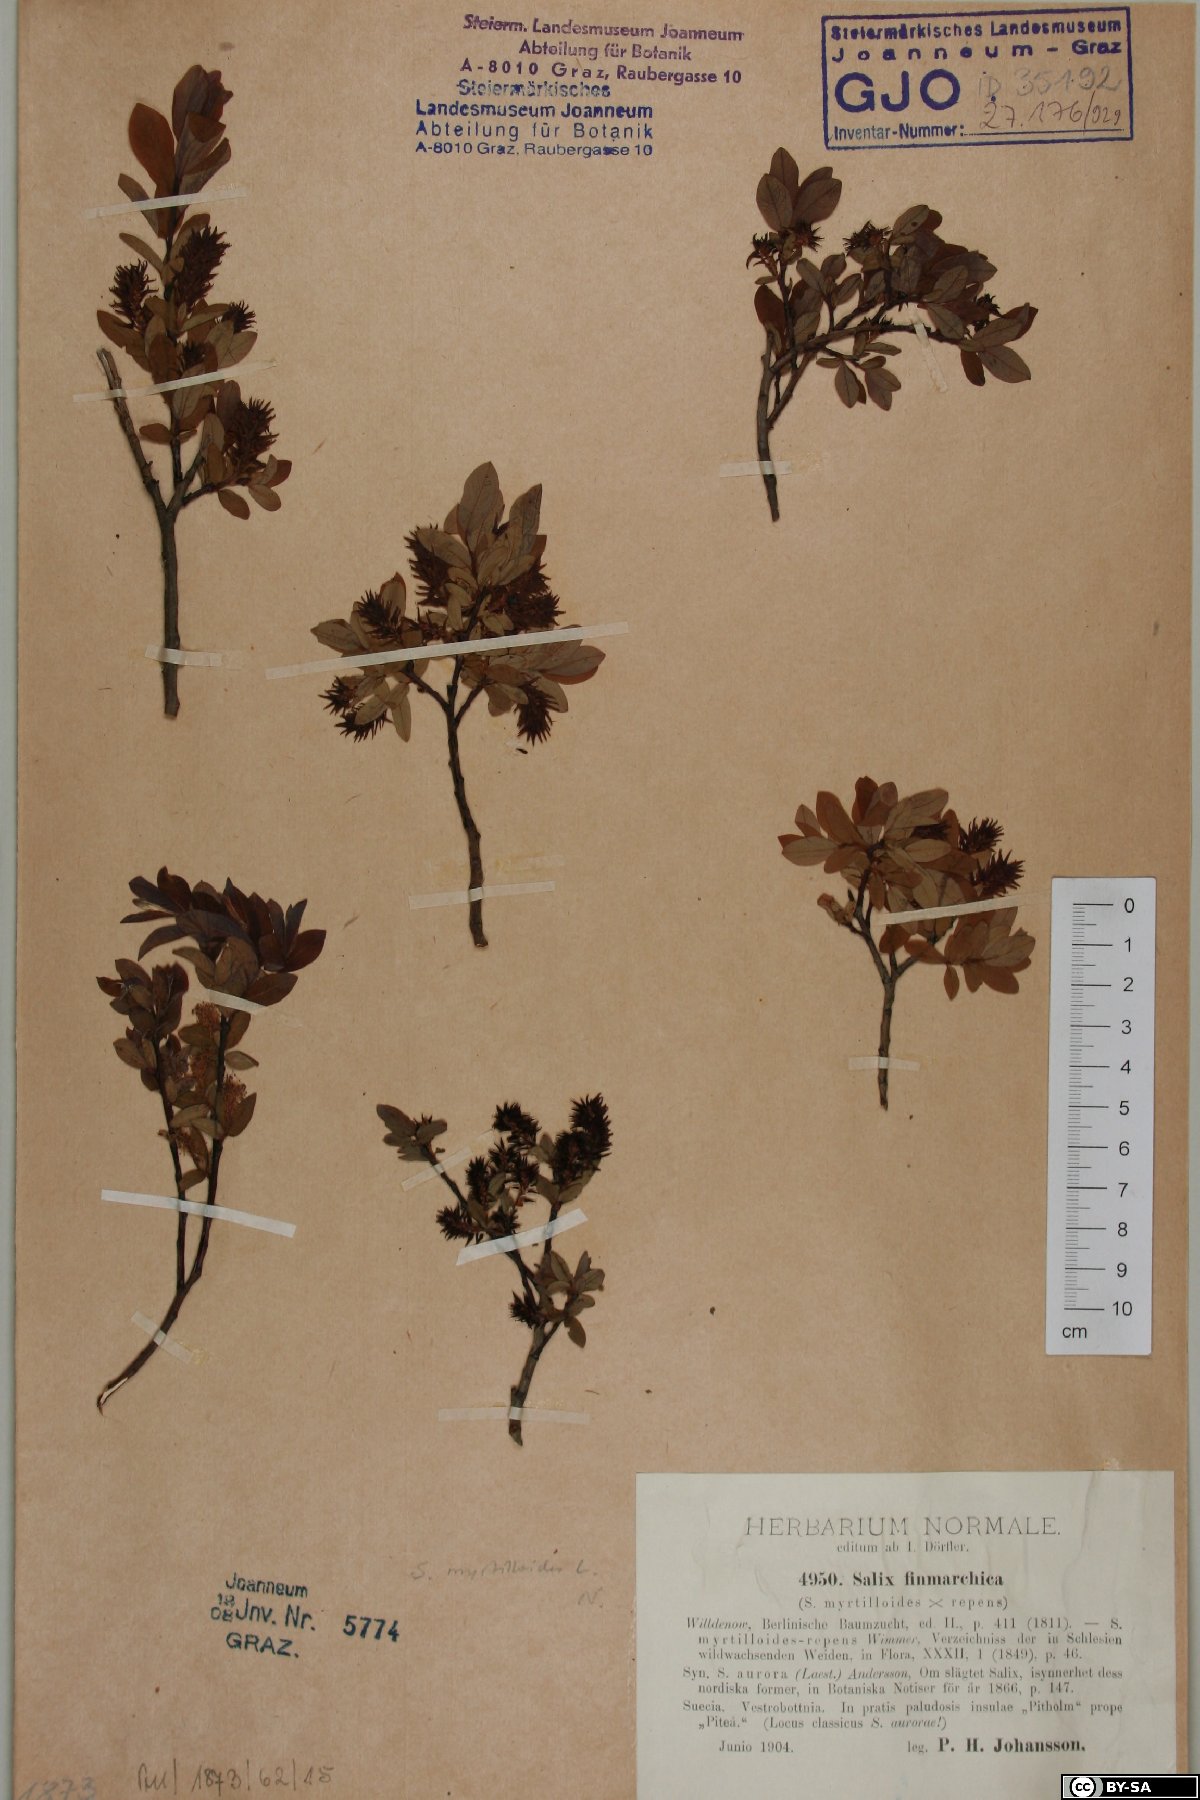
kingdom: Plantae
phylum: Tracheophyta
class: Magnoliopsida
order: Malpighiales
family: Salicaceae
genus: Salix
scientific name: Salix myrtilloides
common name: Myrtle-leaved willow
